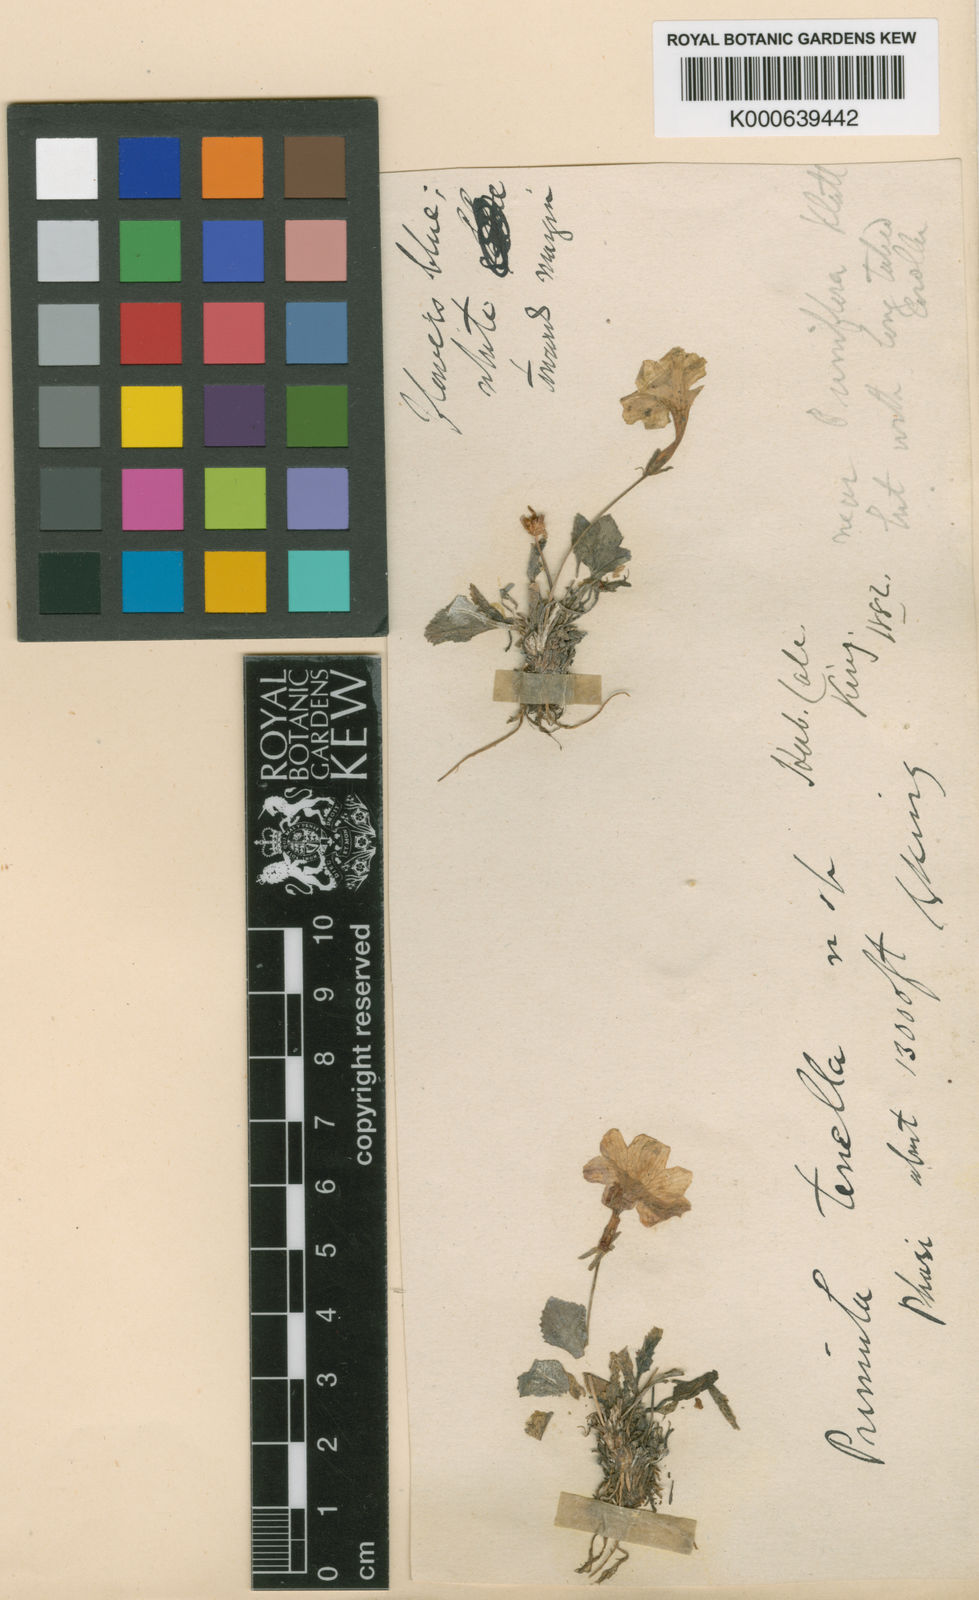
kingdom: Plantae
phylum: Tracheophyta
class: Magnoliopsida
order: Ericales
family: Primulaceae
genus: Primula
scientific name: Primula tenella
